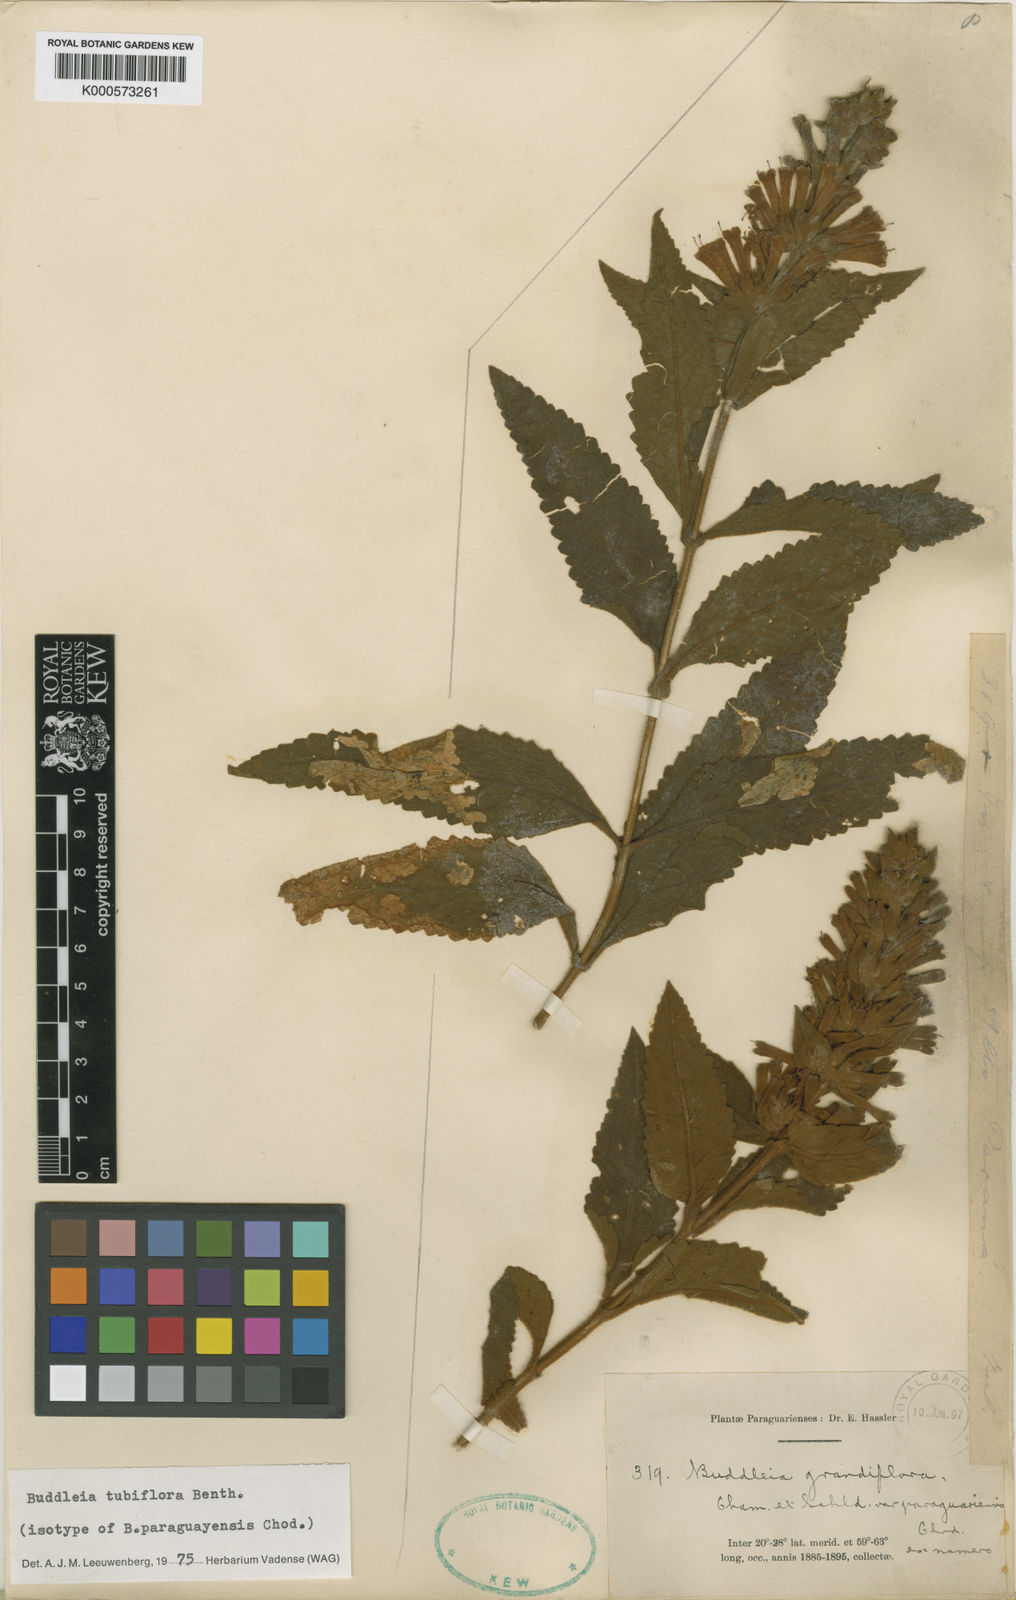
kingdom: Plantae
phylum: Tracheophyta
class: Magnoliopsida
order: Lamiales
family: Scrophulariaceae
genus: Buddleja
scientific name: Buddleja tubiflora
